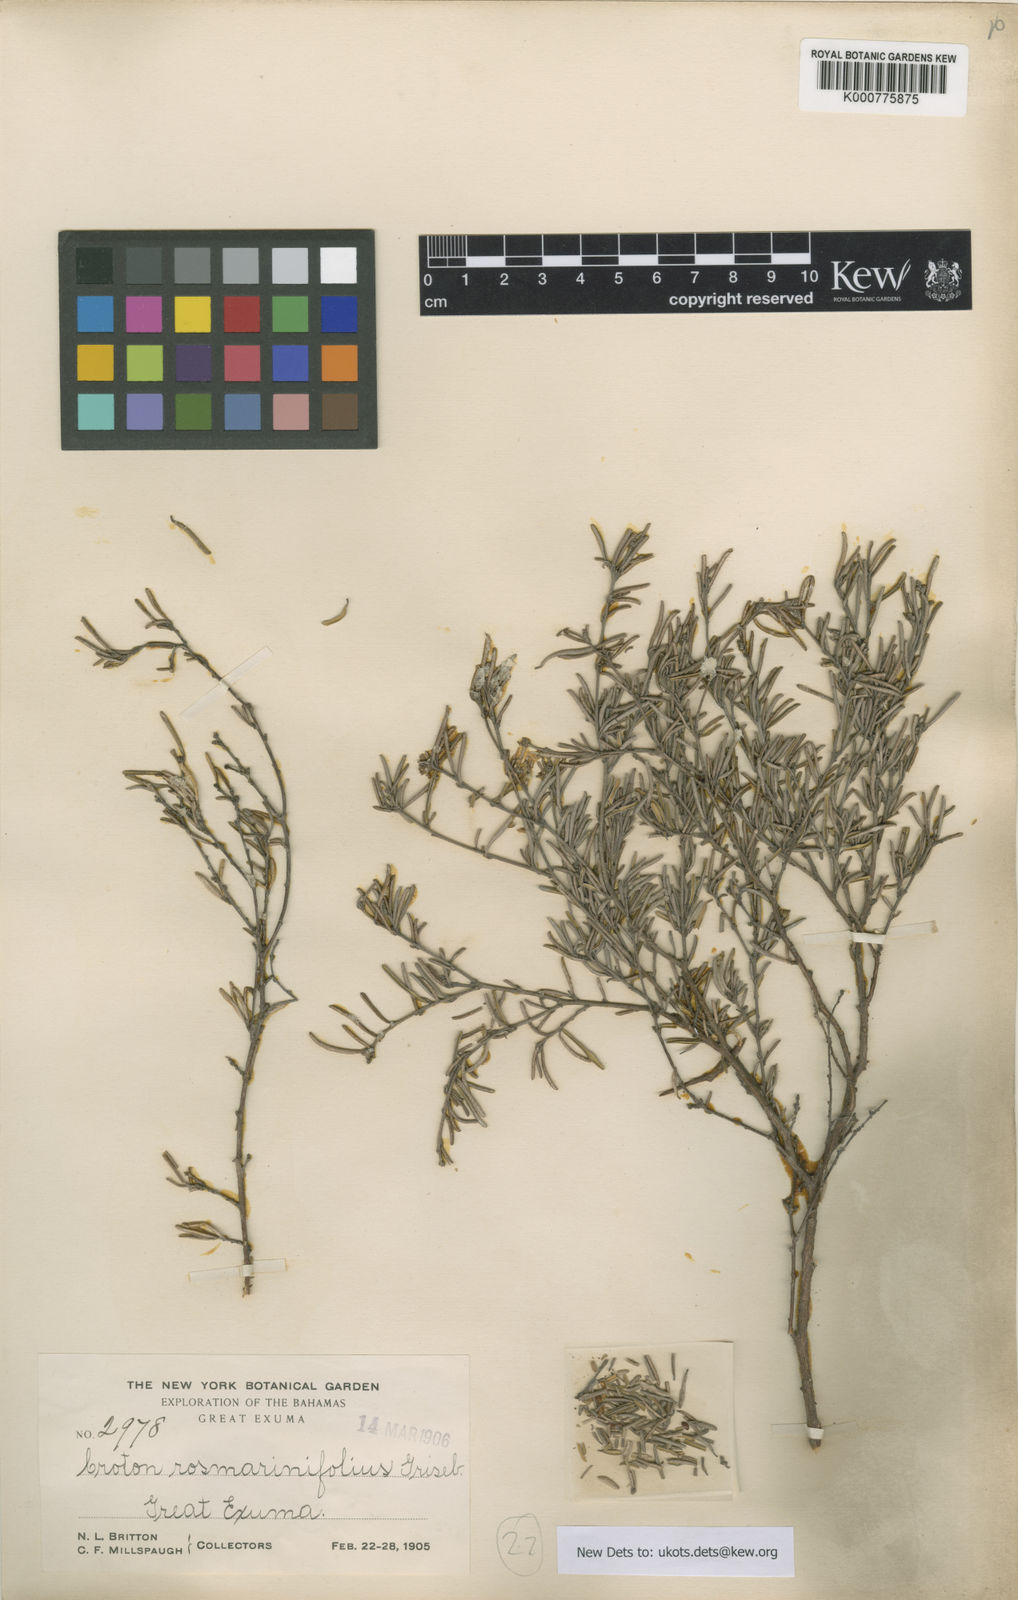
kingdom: Plantae
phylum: Tracheophyta
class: Magnoliopsida
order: Malpighiales
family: Euphorbiaceae
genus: Croton
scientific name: Croton
